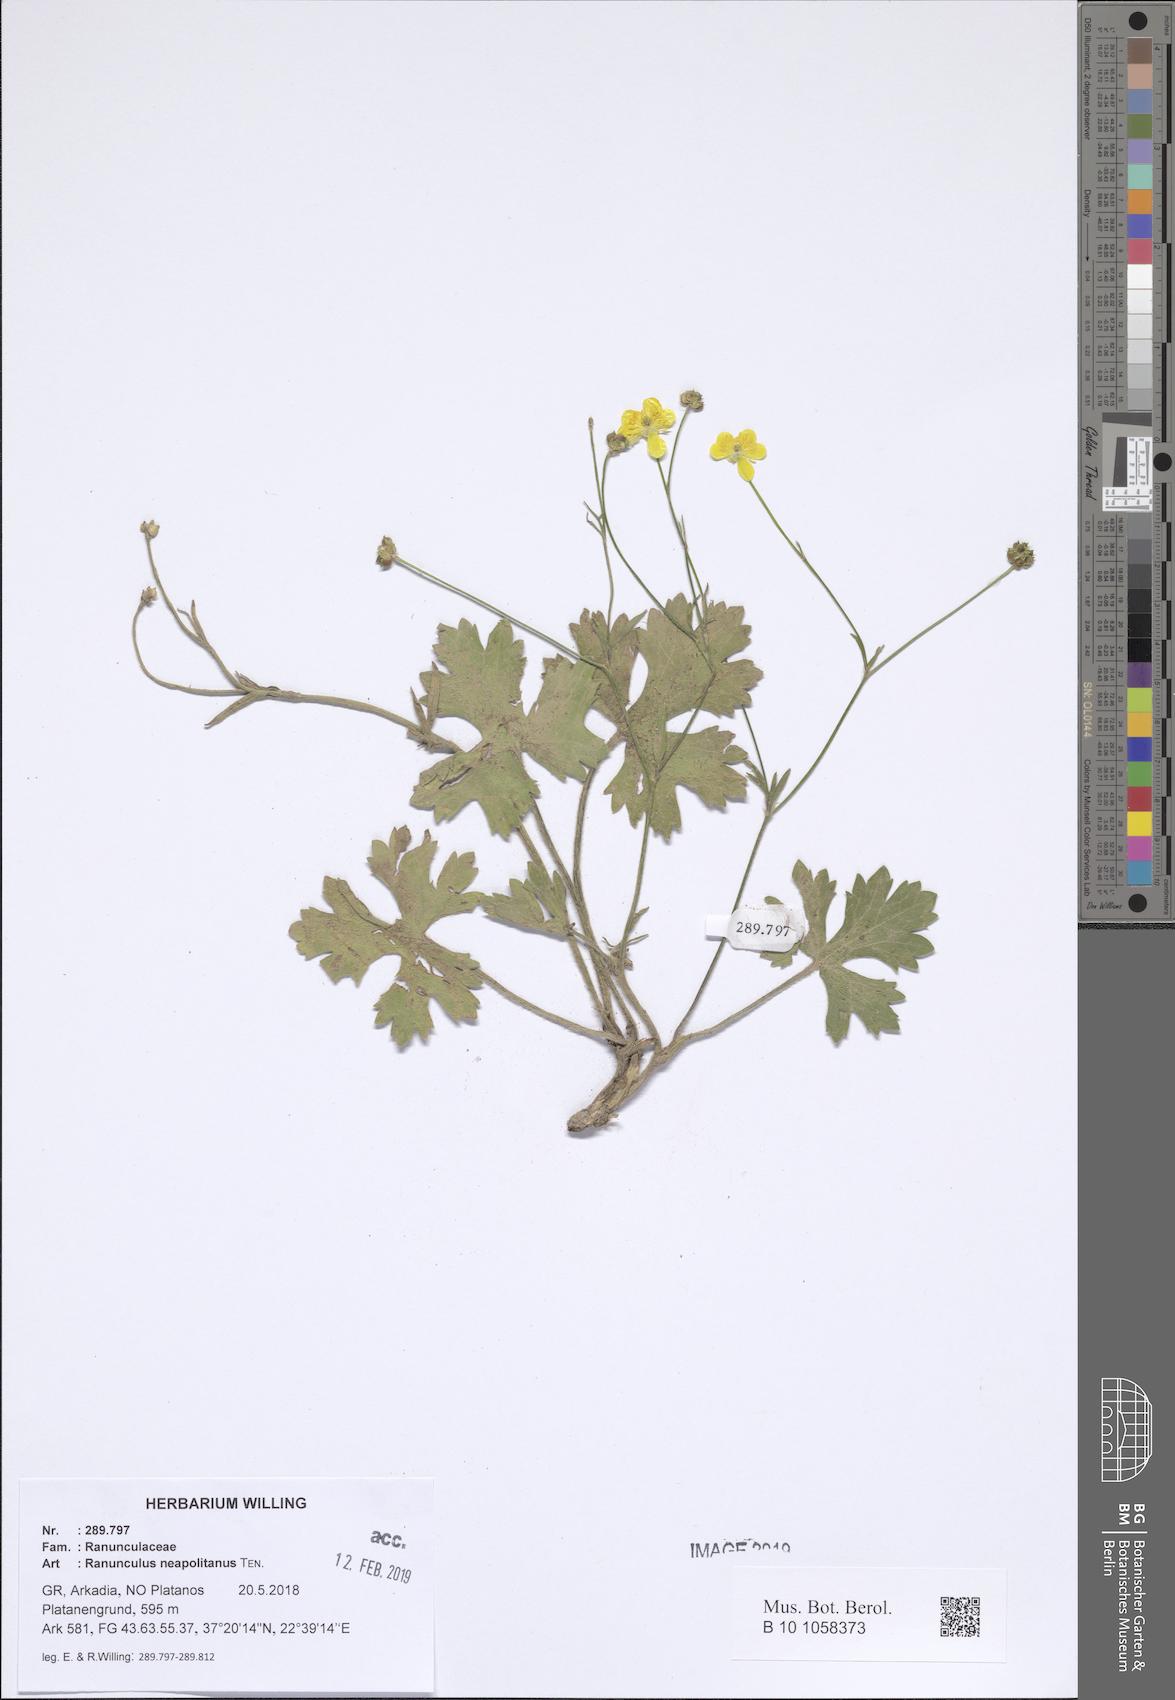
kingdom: Plantae
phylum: Tracheophyta
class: Magnoliopsida
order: Ranunculales
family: Ranunculaceae
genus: Ranunculus
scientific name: Ranunculus neapolitanus
